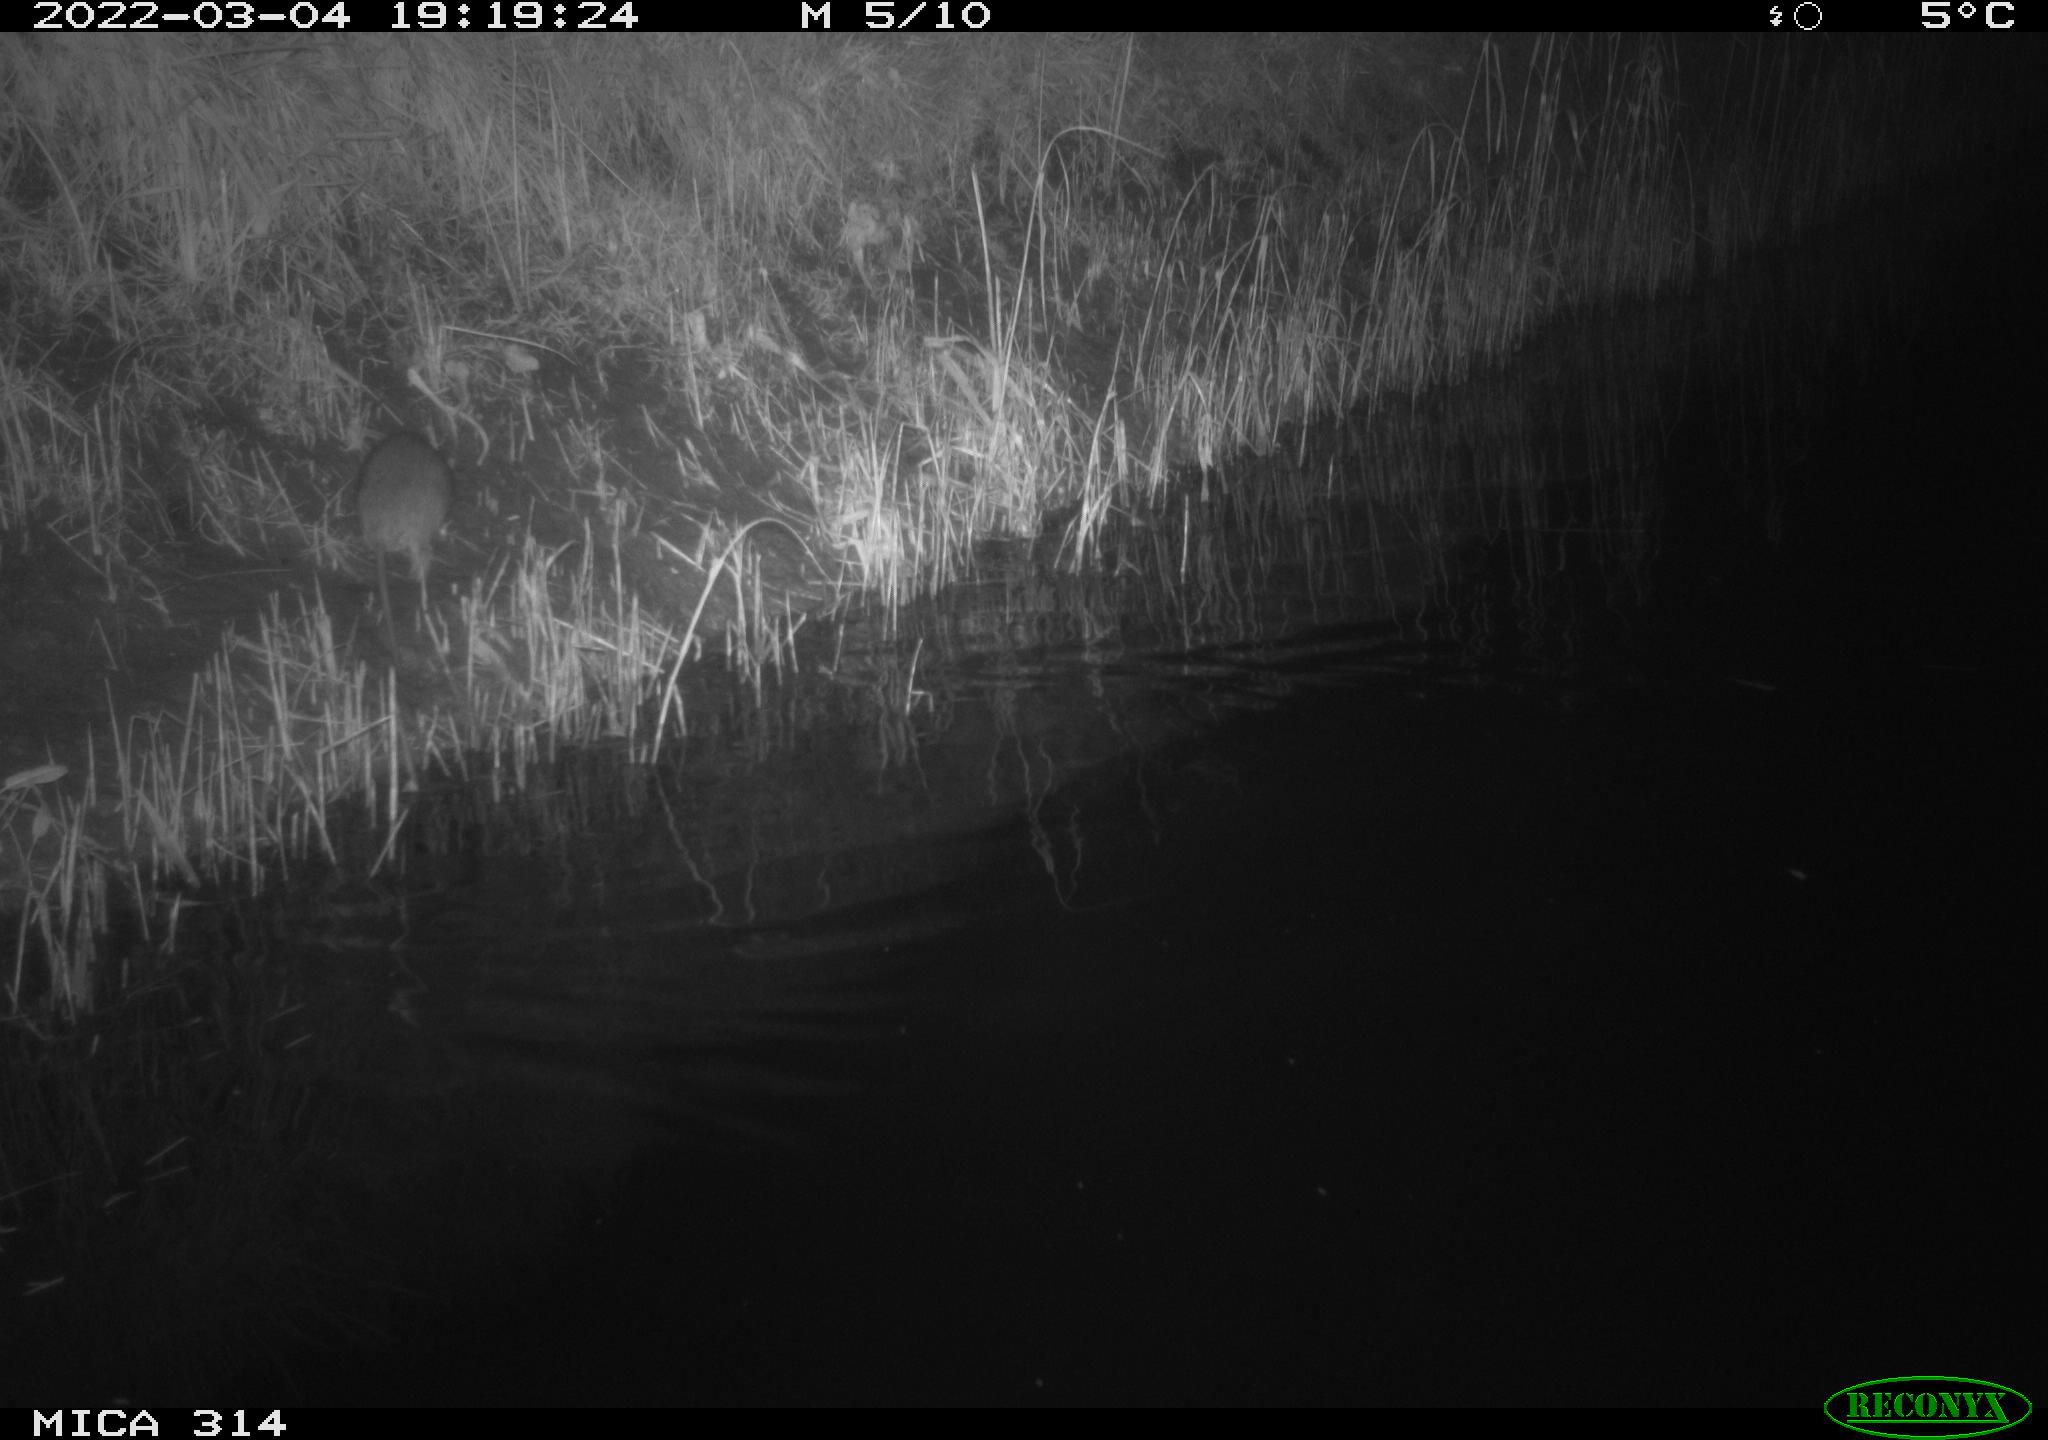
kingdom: Animalia
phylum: Chordata
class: Mammalia
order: Rodentia
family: Muridae
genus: Rattus
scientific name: Rattus norvegicus
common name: Brown rat
